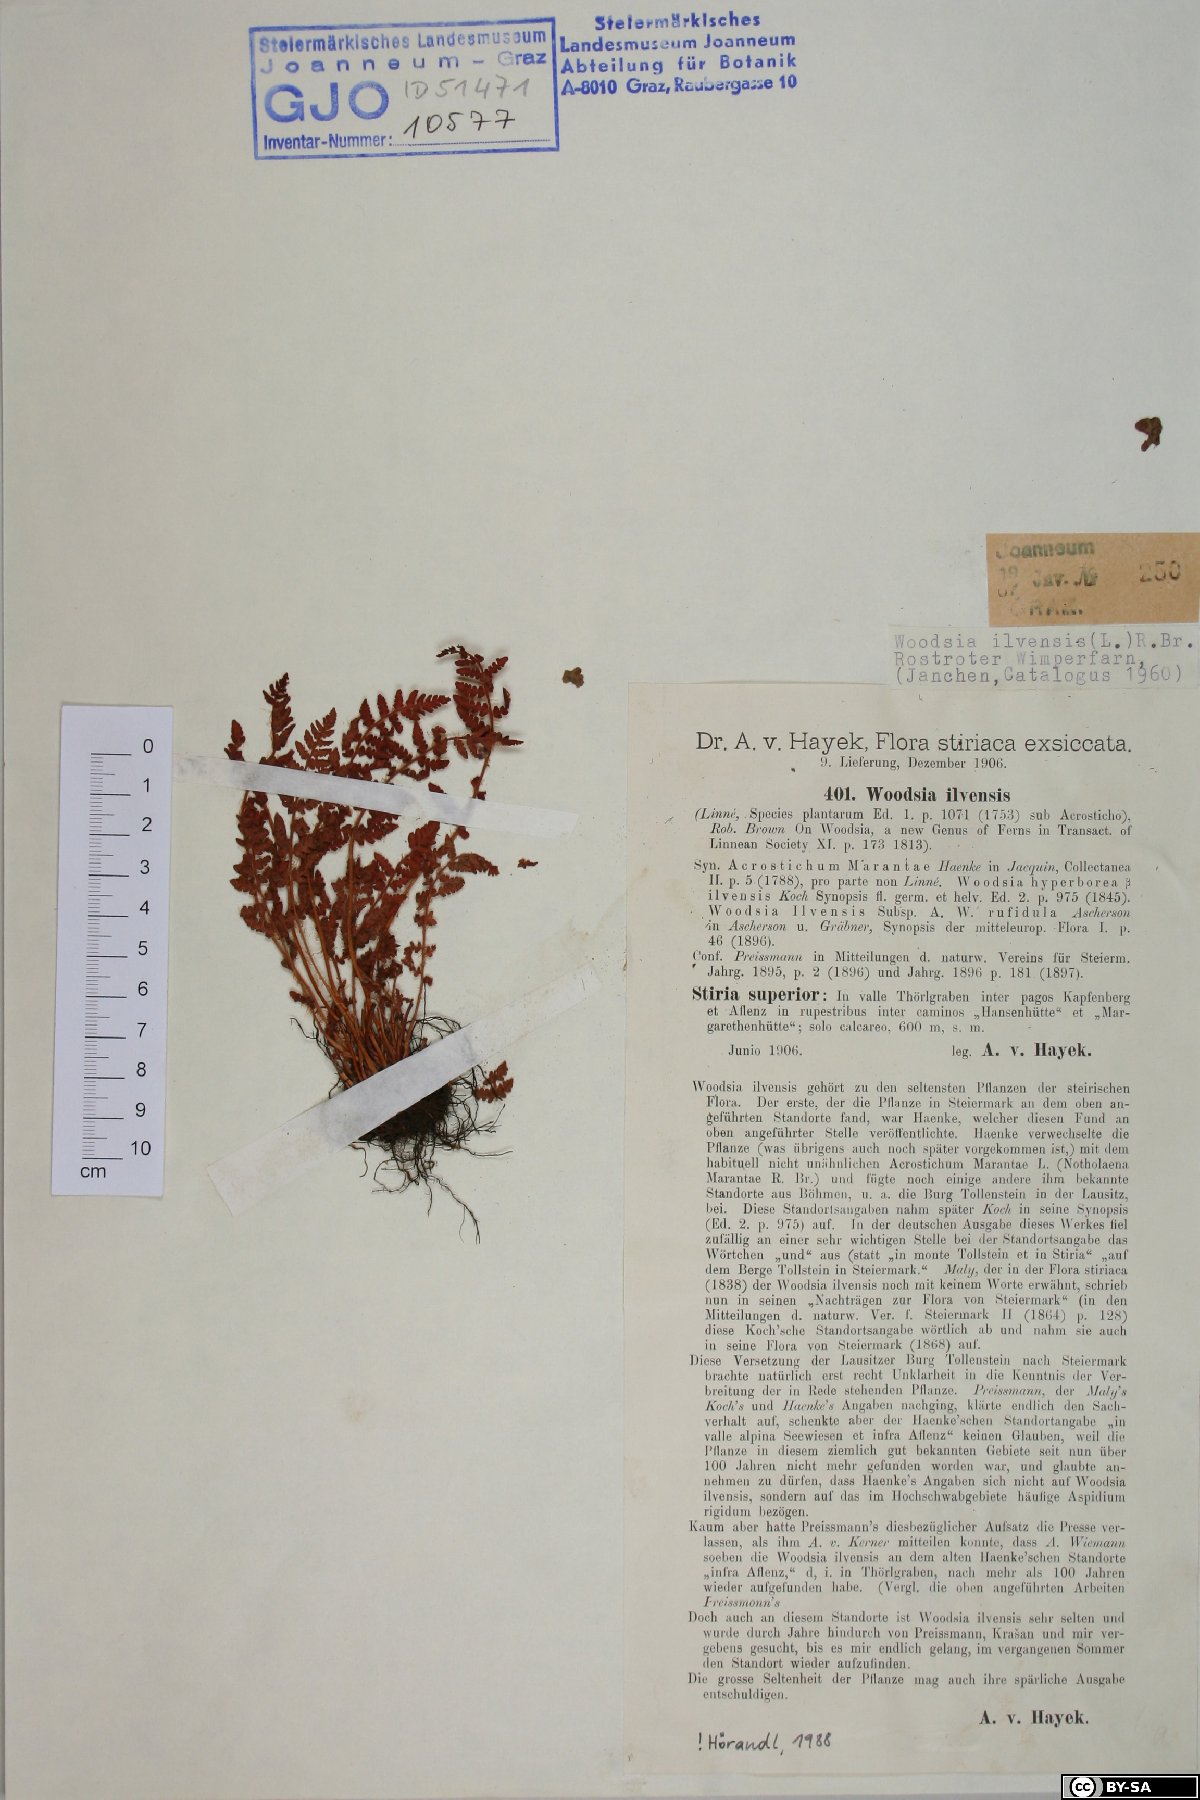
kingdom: Plantae
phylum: Tracheophyta
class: Polypodiopsida
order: Polypodiales
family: Woodsiaceae
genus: Woodsia
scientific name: Woodsia ilvensis
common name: Fragrant woodsia
